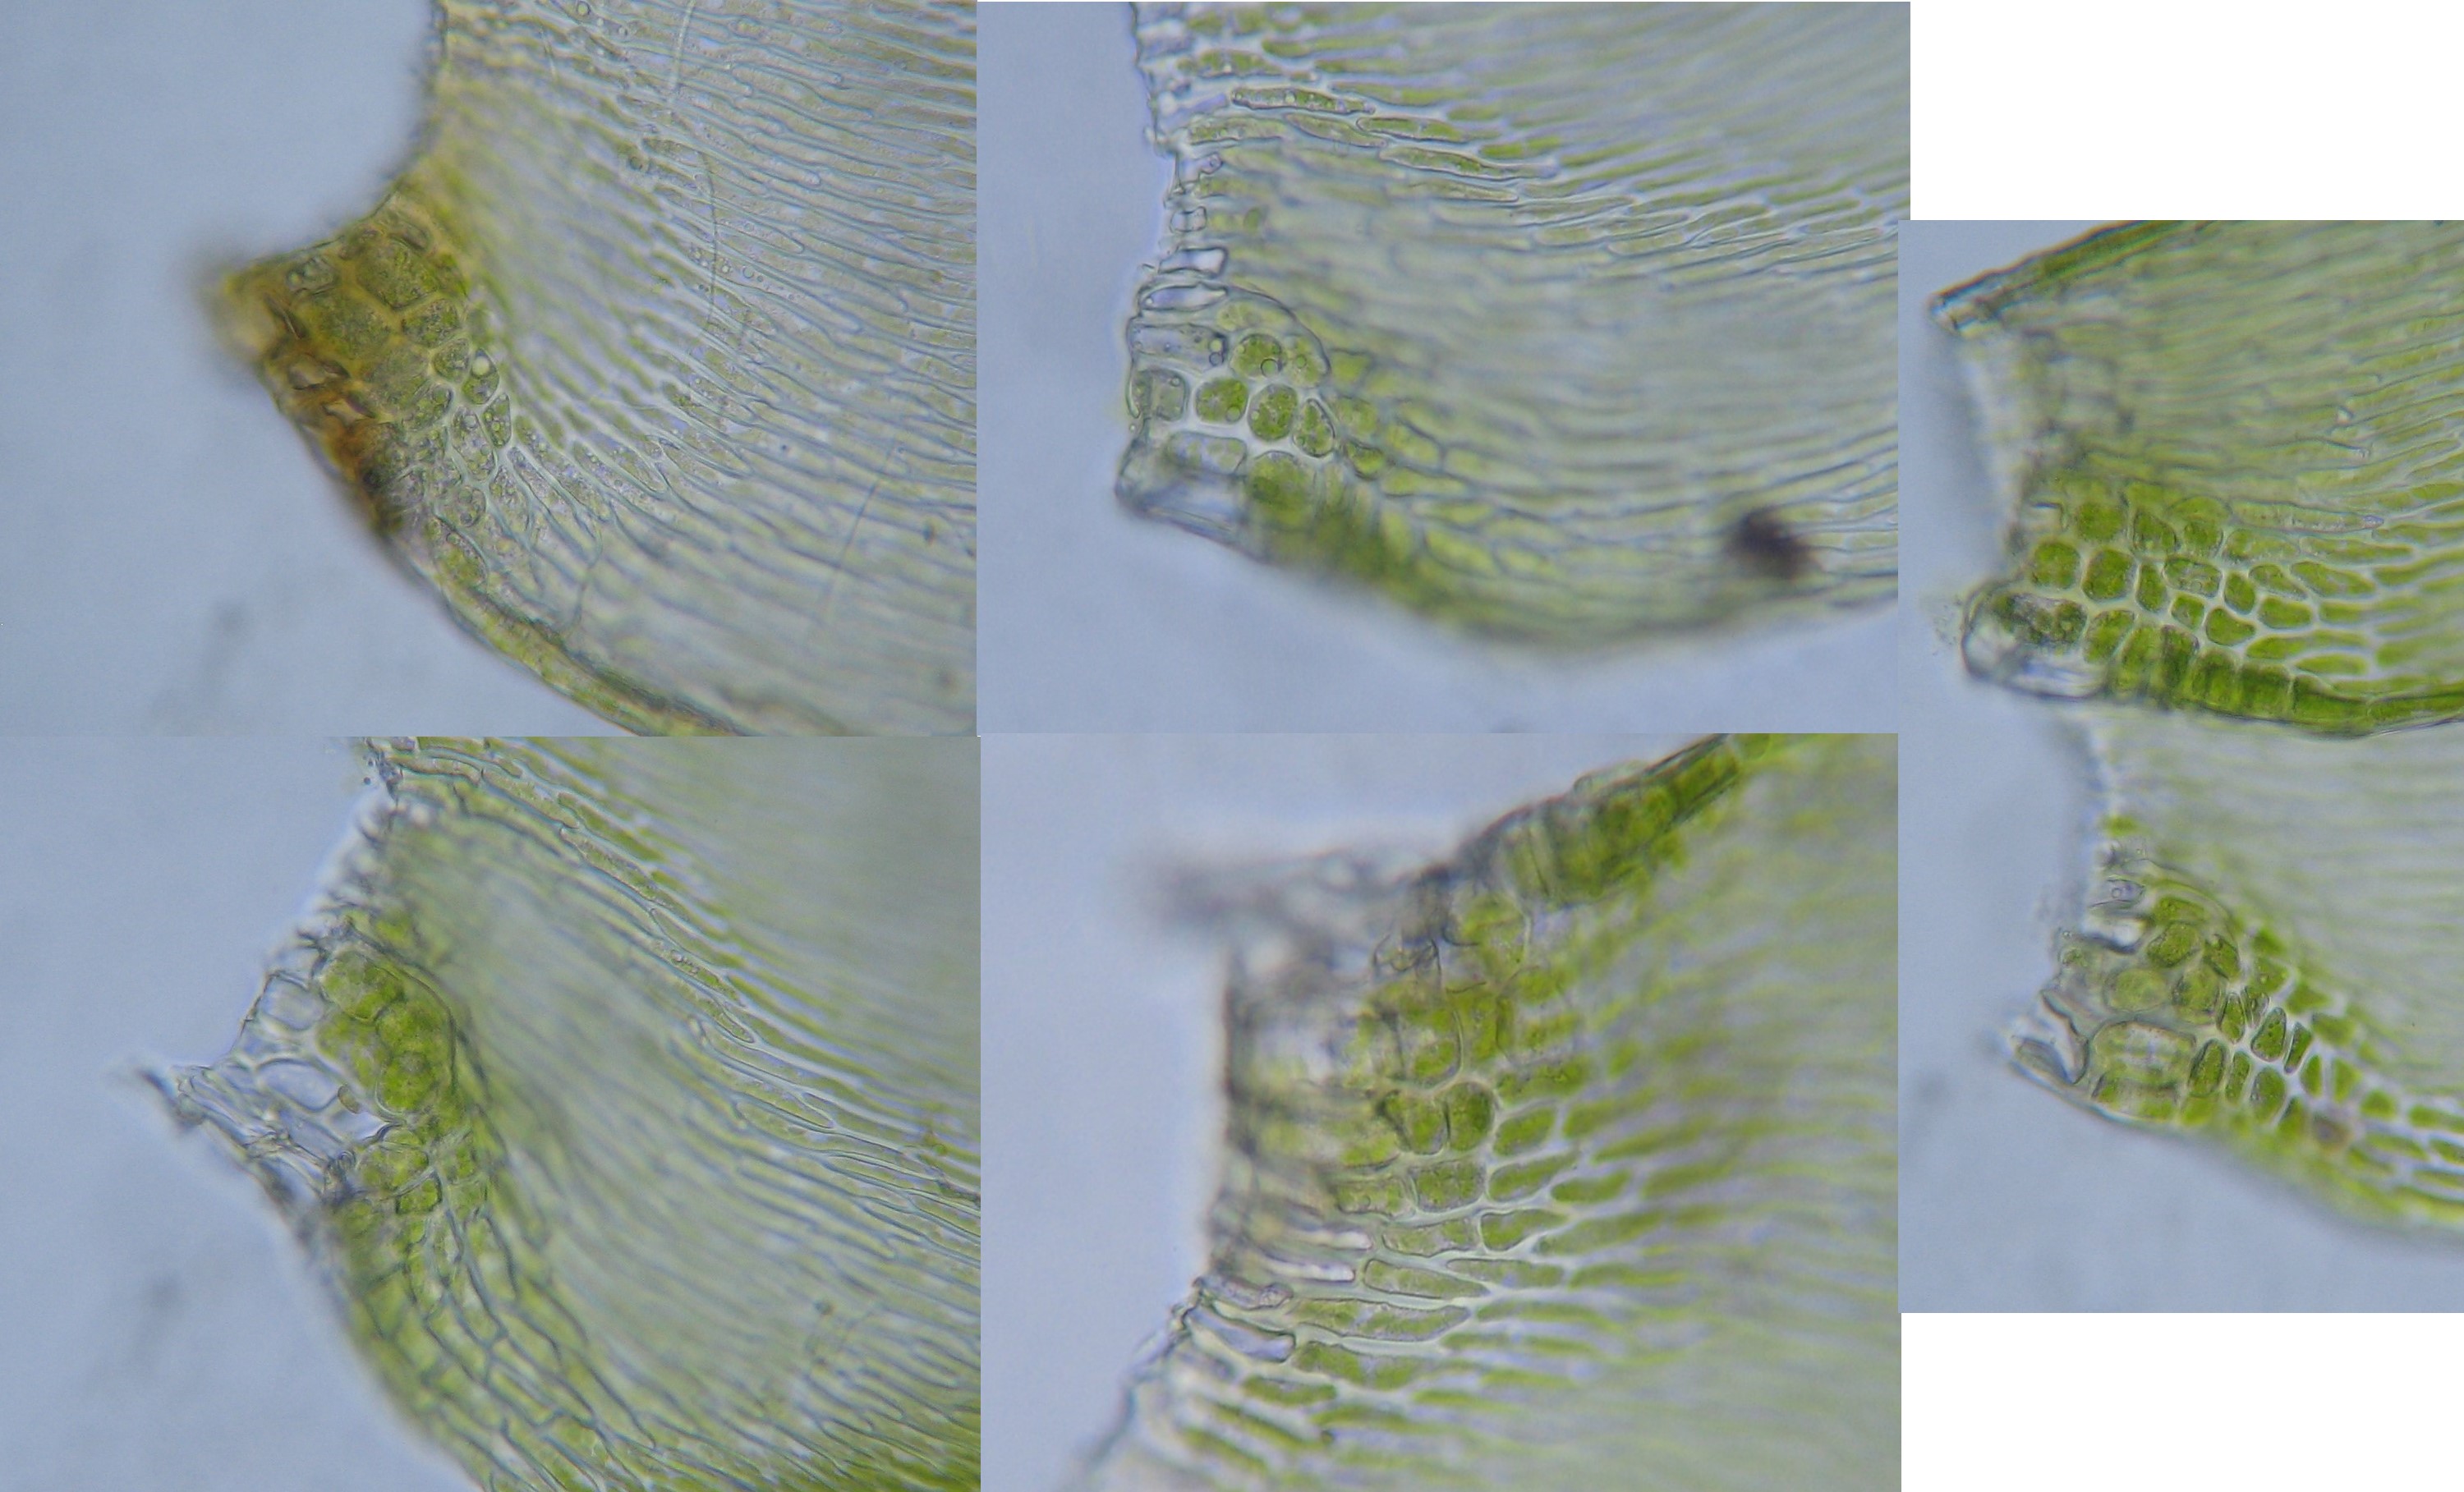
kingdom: Plantae
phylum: Bryophyta
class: Bryopsida
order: Hypnales
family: Hypnaceae
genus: Hypnum
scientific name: Hypnum jutlandicum
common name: Hede-cypresmos
